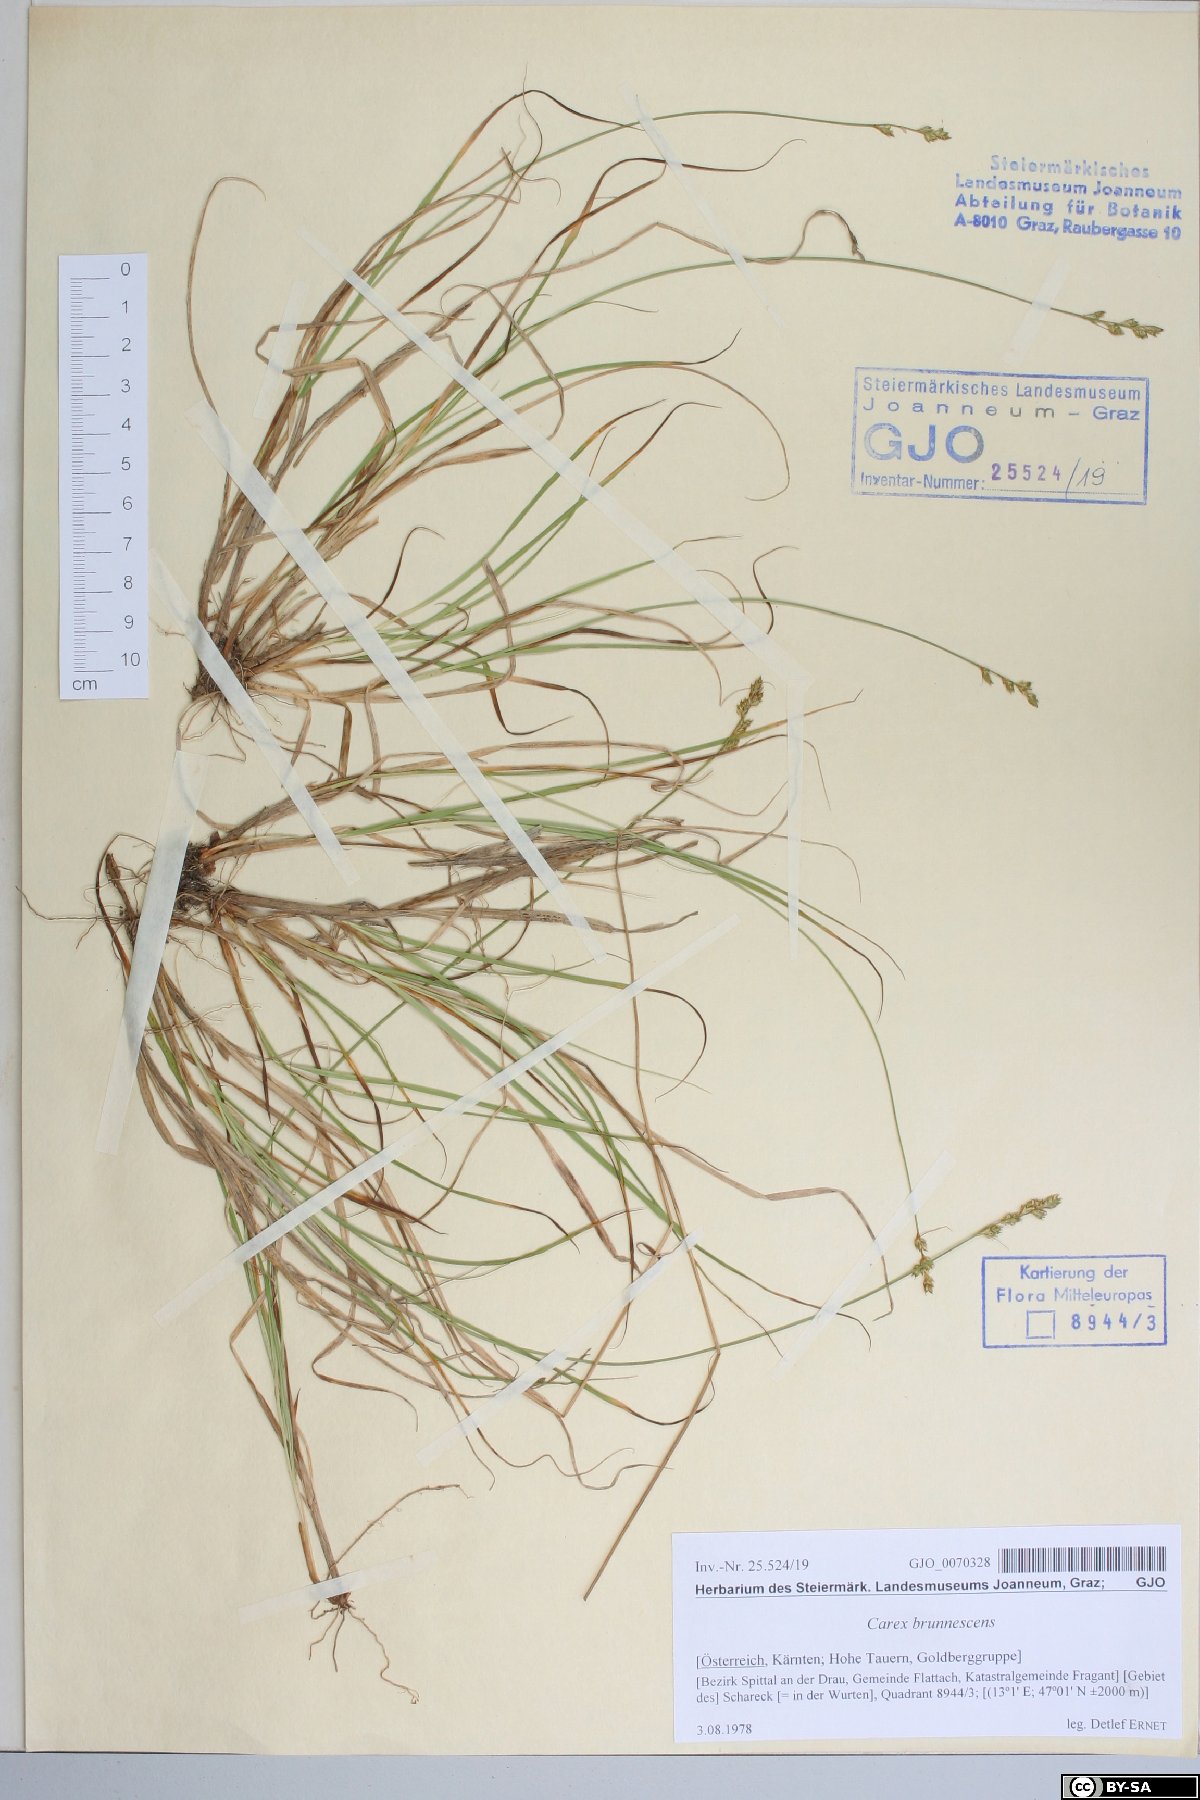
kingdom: Plantae
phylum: Tracheophyta
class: Liliopsida
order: Poales
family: Cyperaceae
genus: Carex
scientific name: Carex brunnescens
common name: Brown sedge
